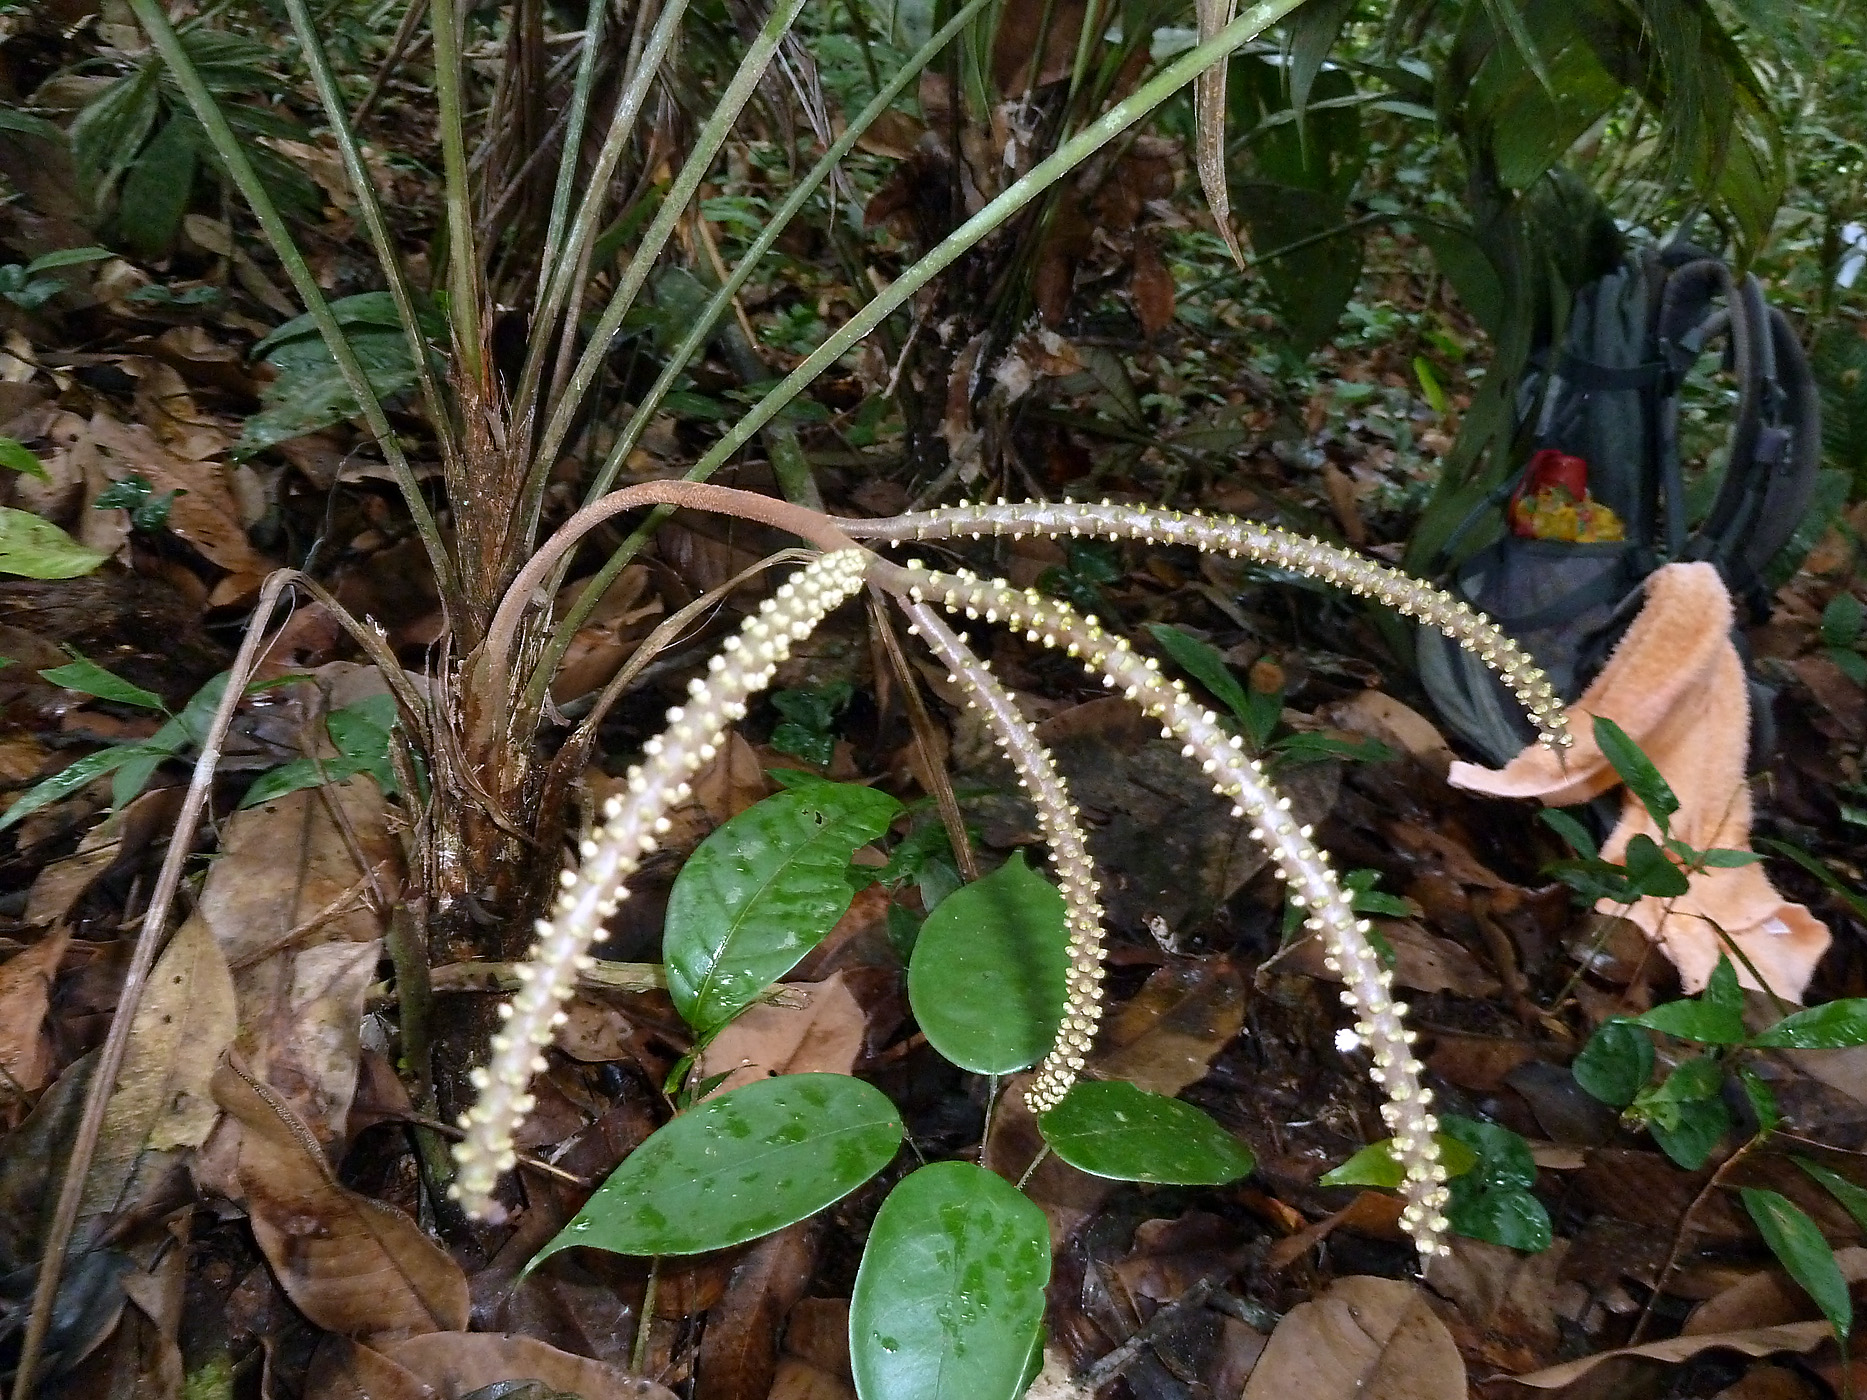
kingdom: Plantae
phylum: Tracheophyta
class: Liliopsida
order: Arecales
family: Arecaceae
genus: Geonoma
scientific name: Geonoma poeppigiana
